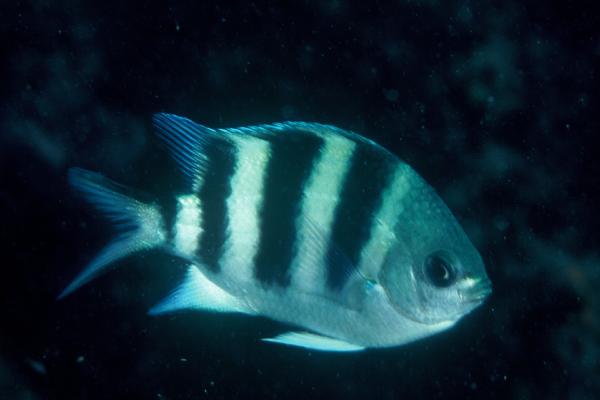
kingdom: Animalia
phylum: Chordata
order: Perciformes
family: Pomacentridae
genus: Abudefduf
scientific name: Abudefduf sexfasciatus
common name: Scissortail sergeant
